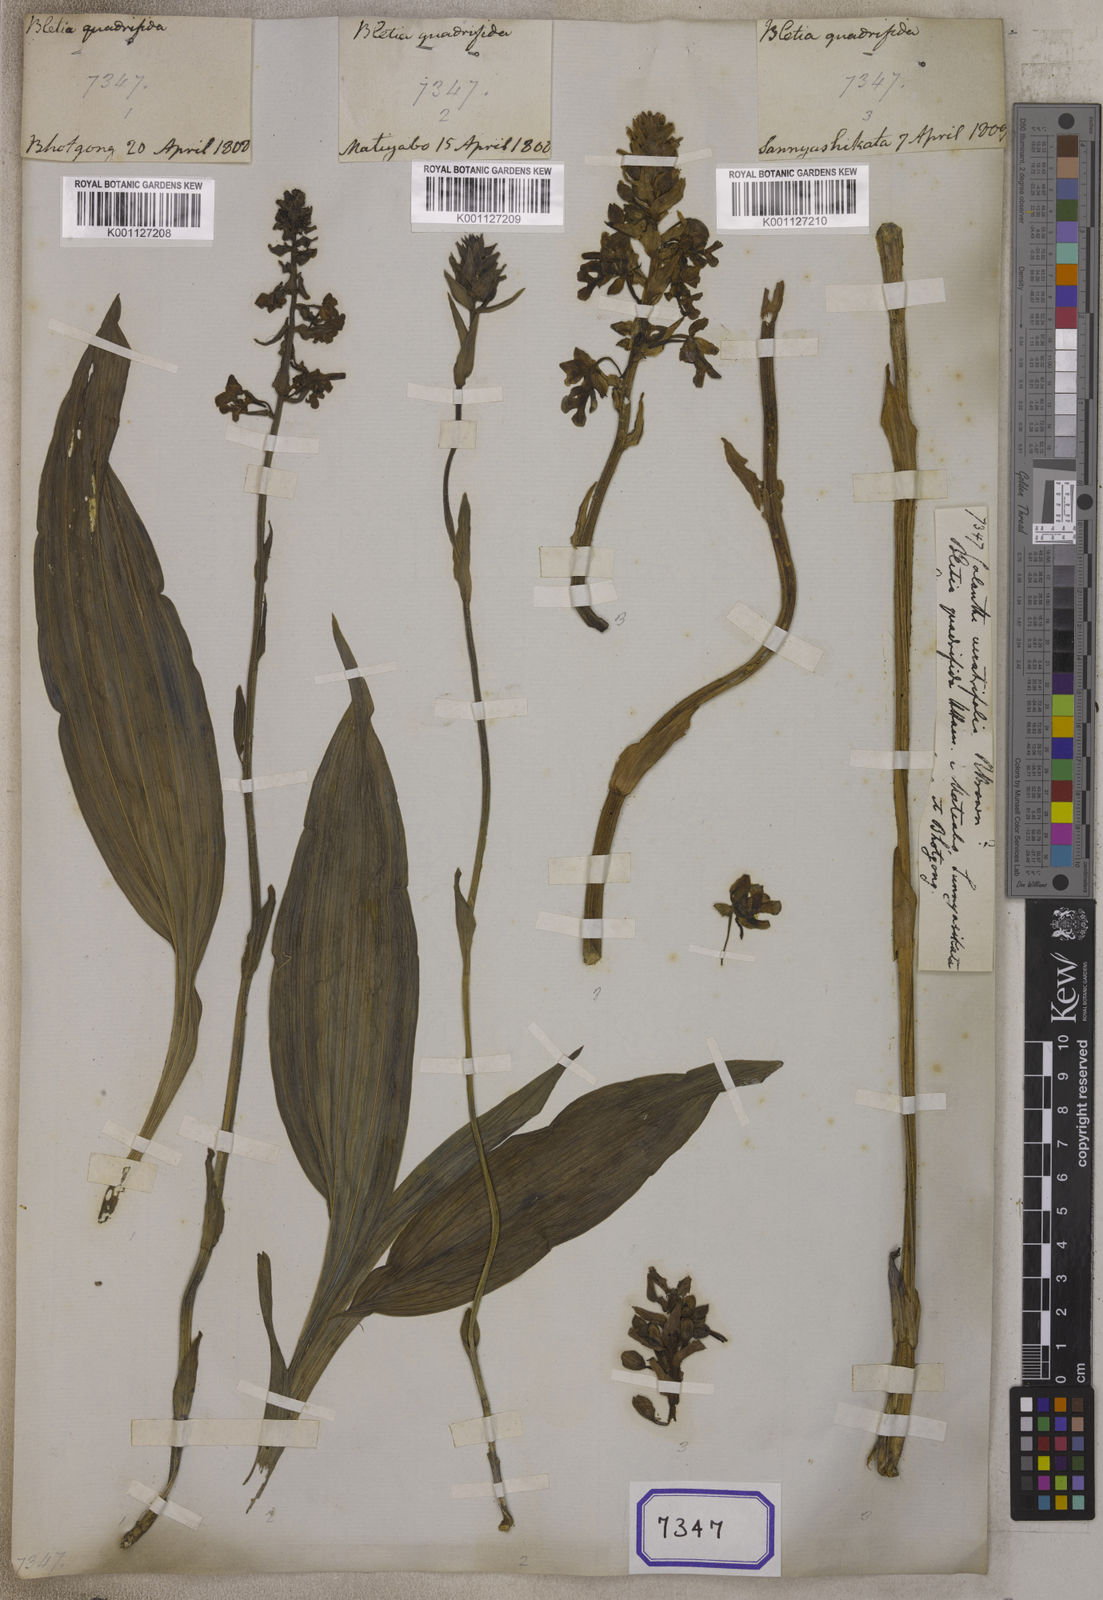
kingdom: Plantae
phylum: Tracheophyta
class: Liliopsida
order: Asparagales
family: Orchidaceae
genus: Calanthe
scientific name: Calanthe
